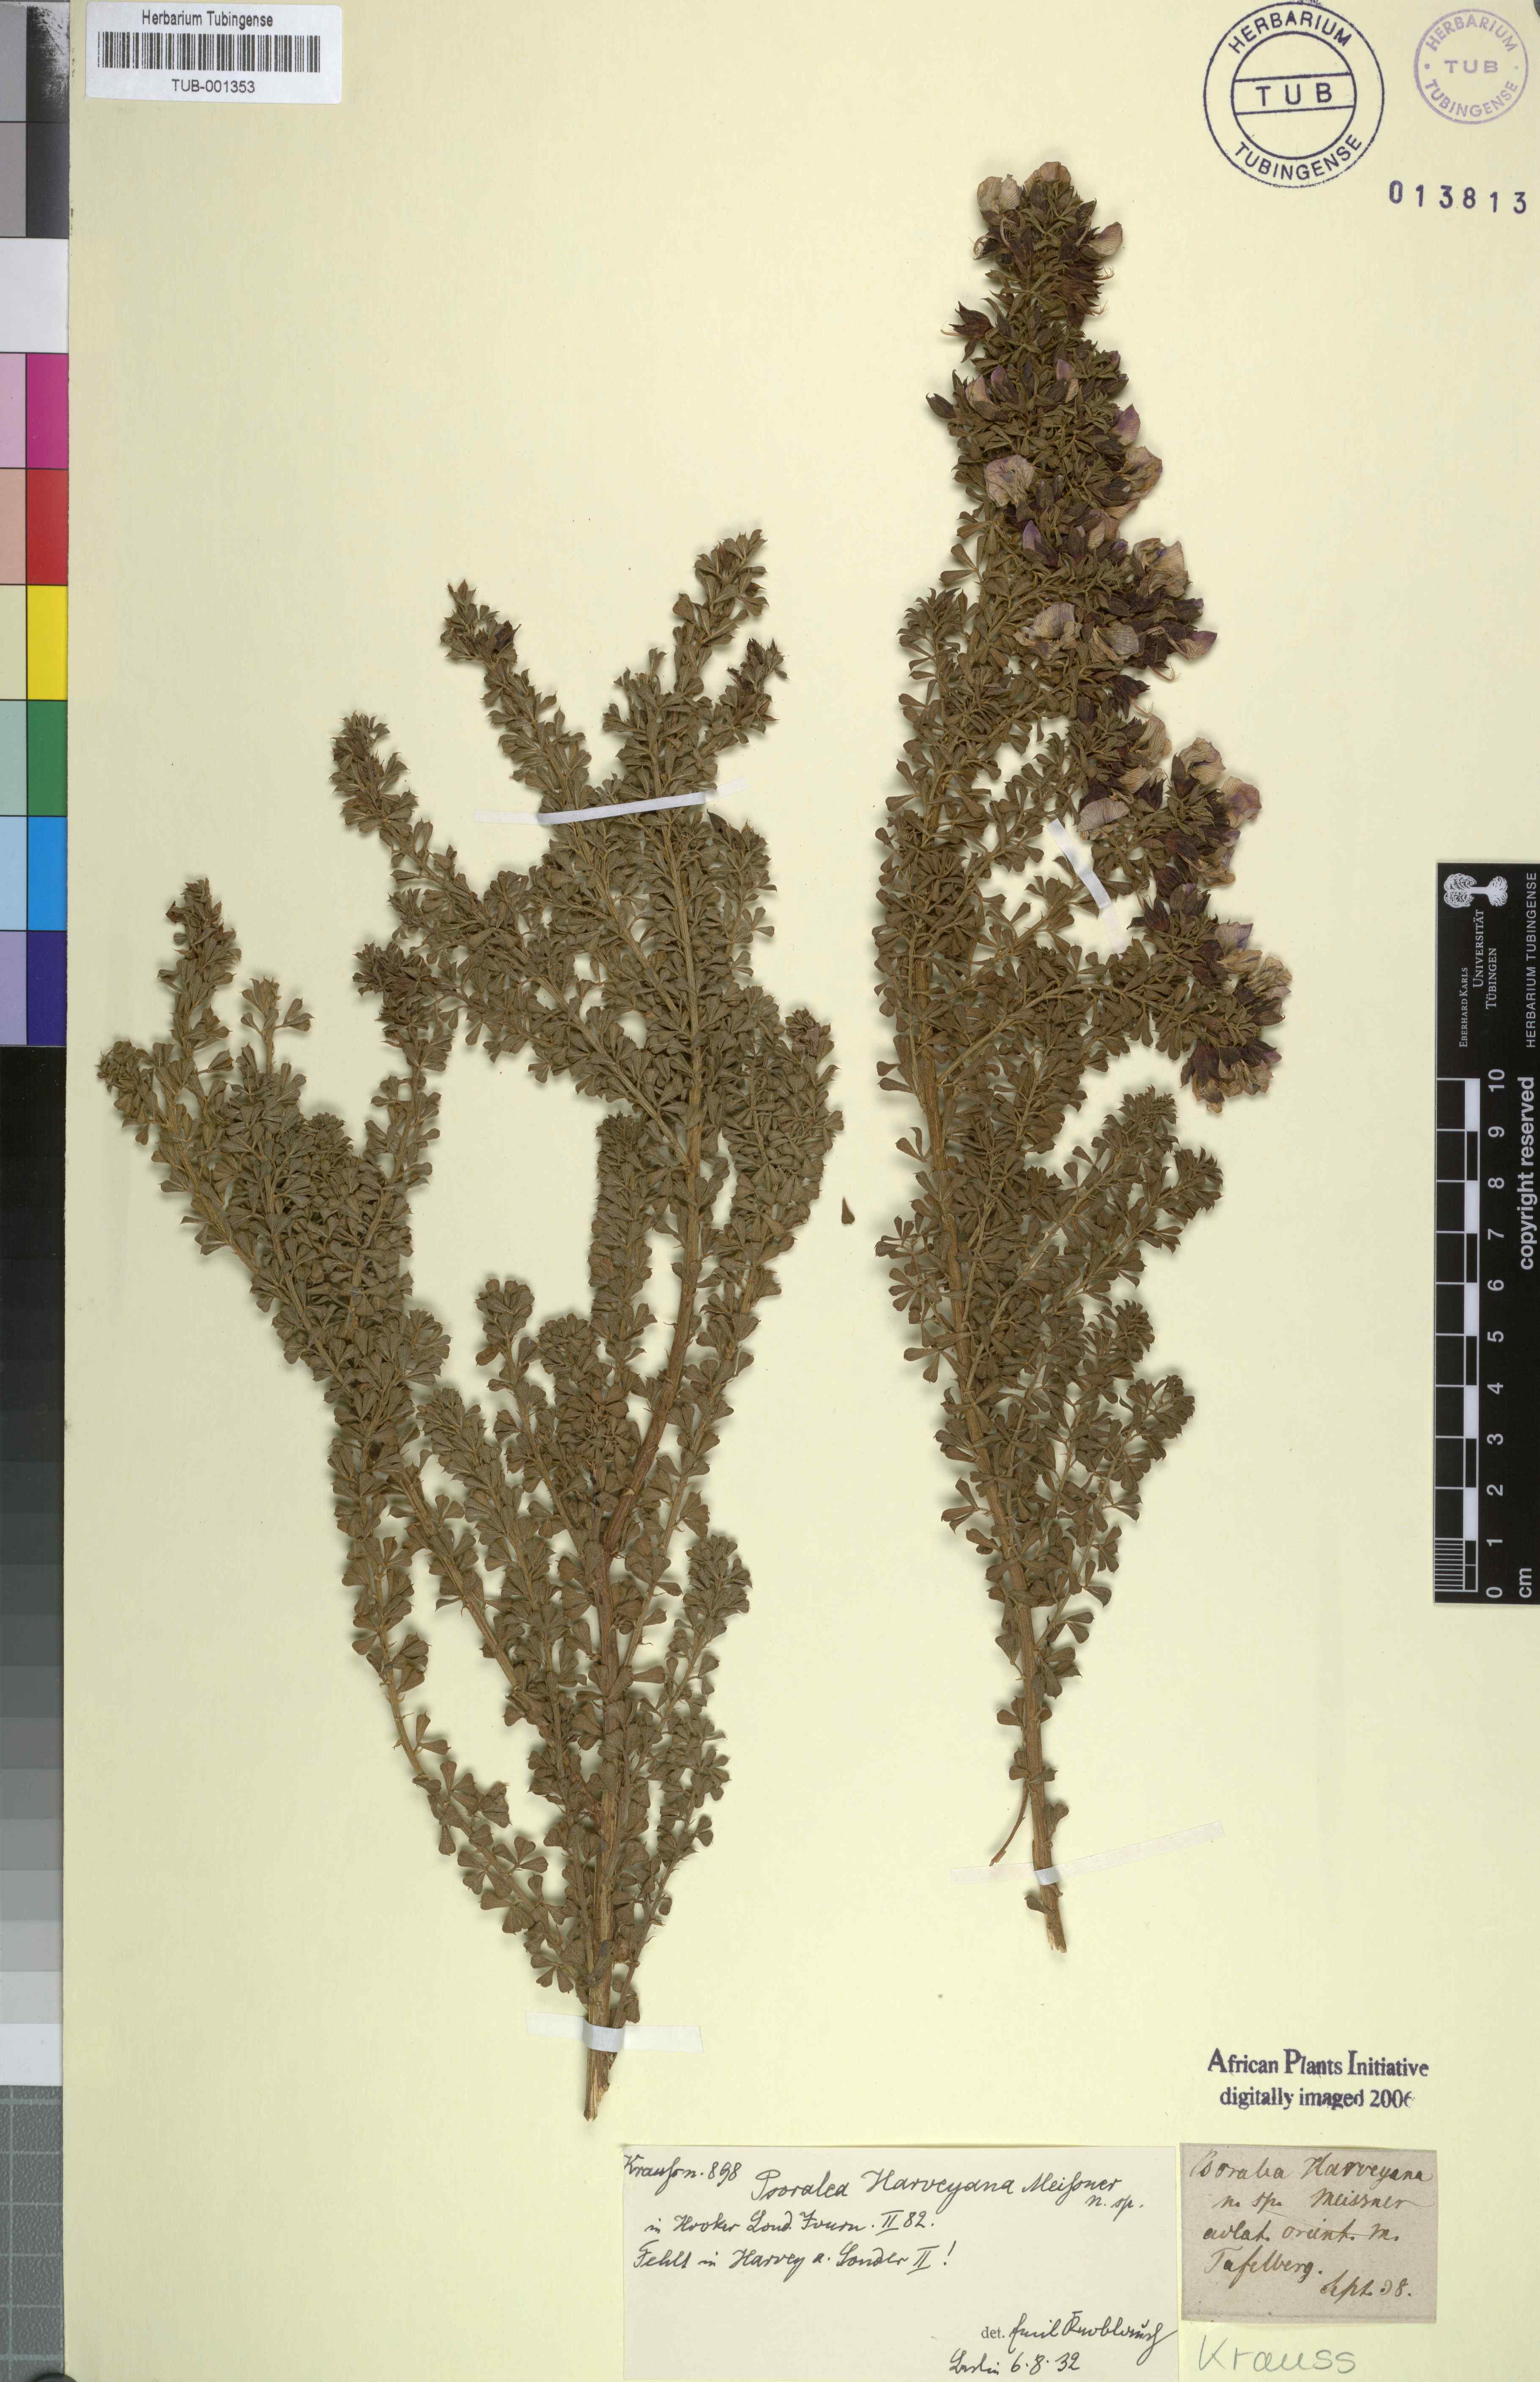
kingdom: Plantae
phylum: Tracheophyta
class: Magnoliopsida
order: Fabales
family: Fabaceae
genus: Psoralea
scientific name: Psoralea aculeata
